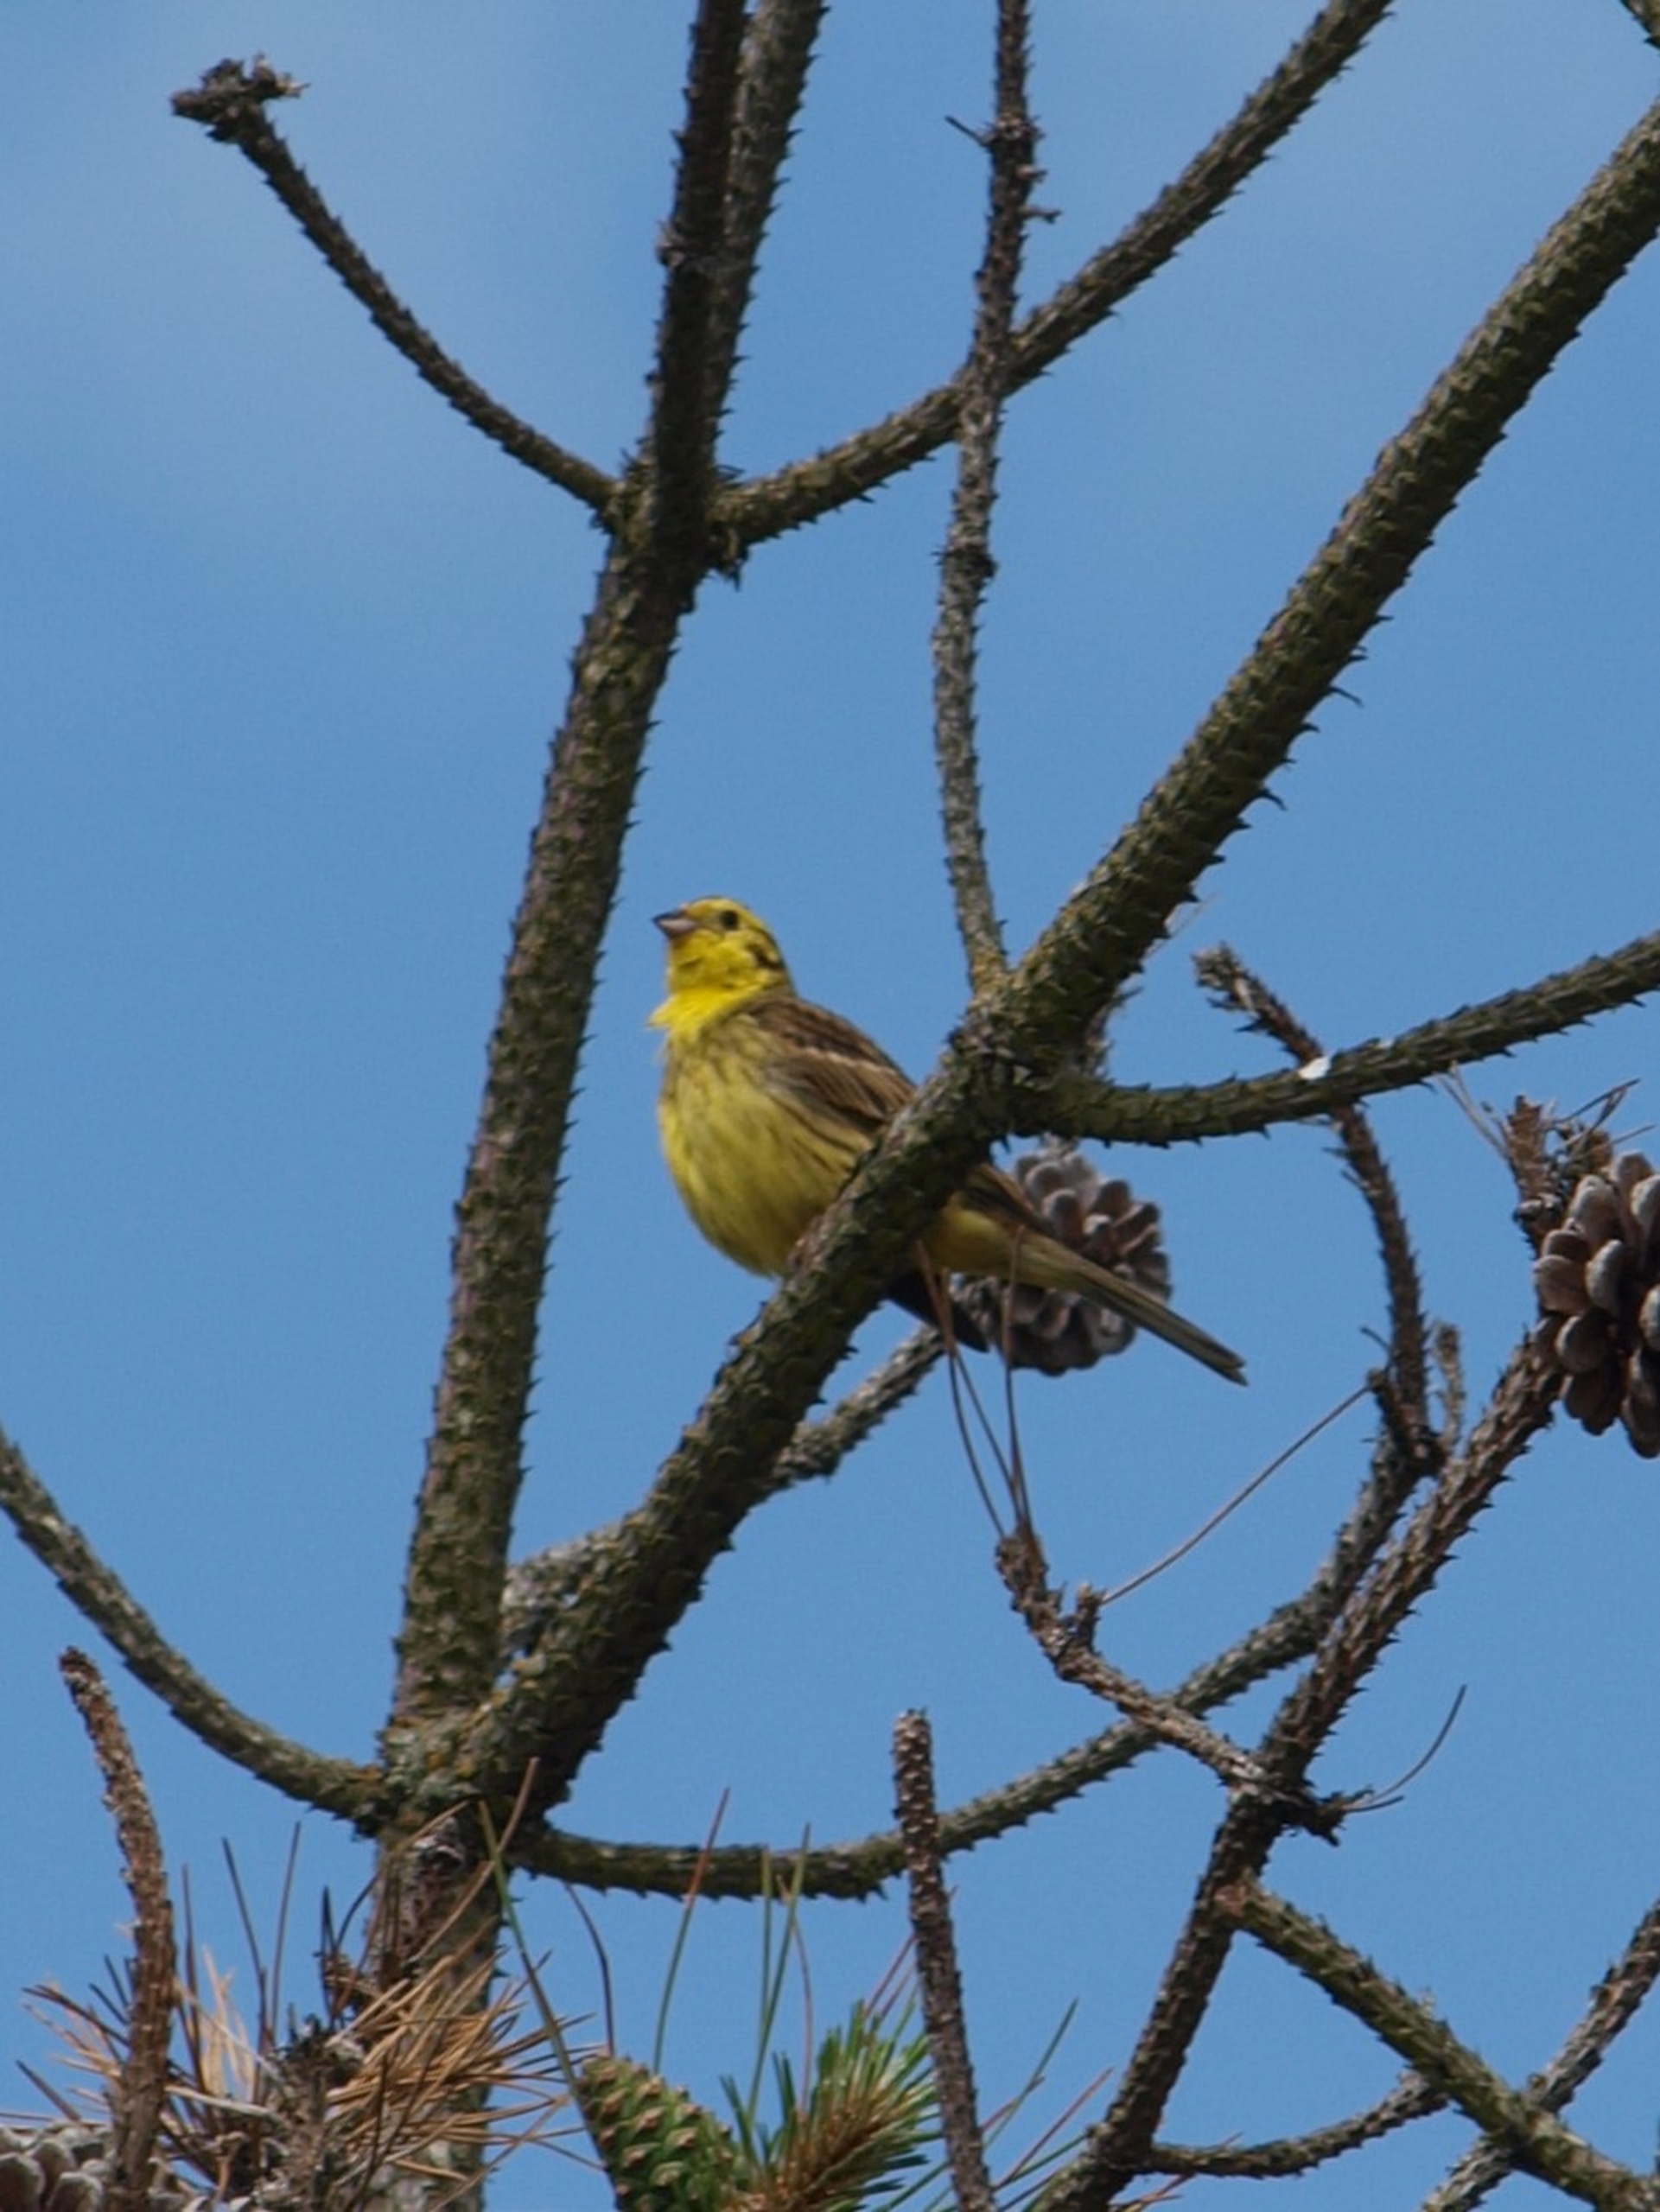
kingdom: Animalia
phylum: Chordata
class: Aves
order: Passeriformes
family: Emberizidae
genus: Emberiza
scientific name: Emberiza citrinella
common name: Gulspurv
